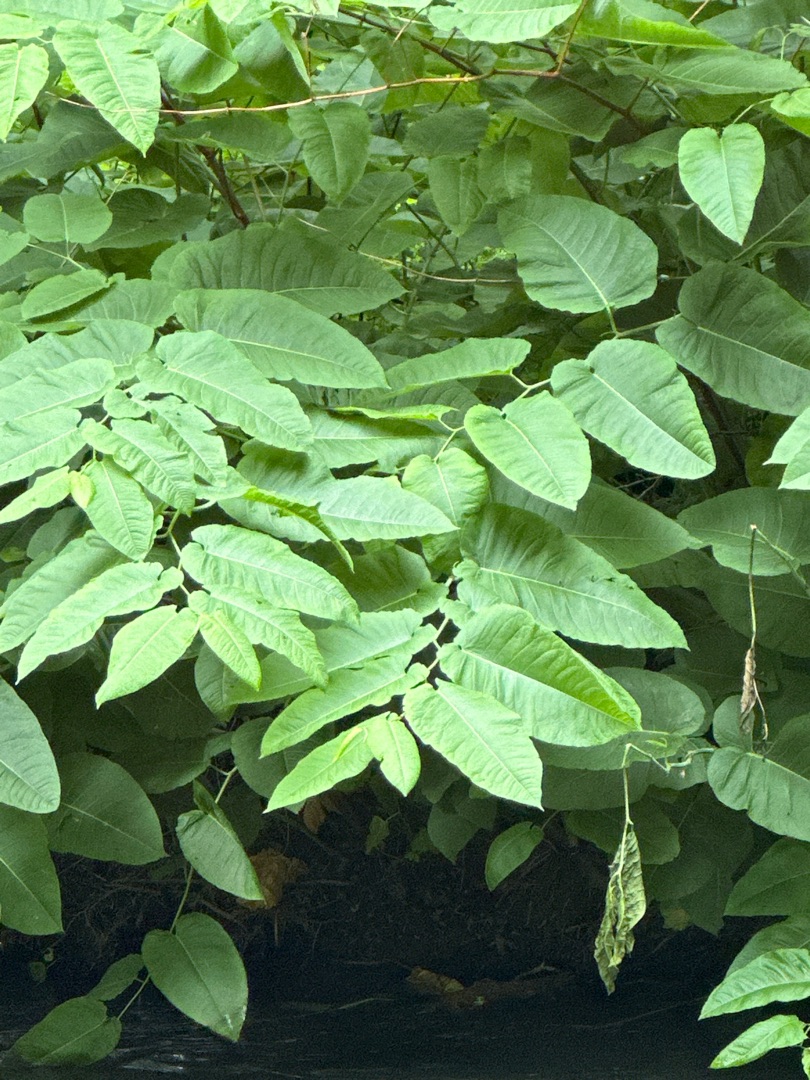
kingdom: Plantae
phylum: Tracheophyta
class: Magnoliopsida
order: Caryophyllales
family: Polygonaceae
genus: Reynoutria
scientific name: Reynoutria sachalinensis
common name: Kæmpe-pileurt
